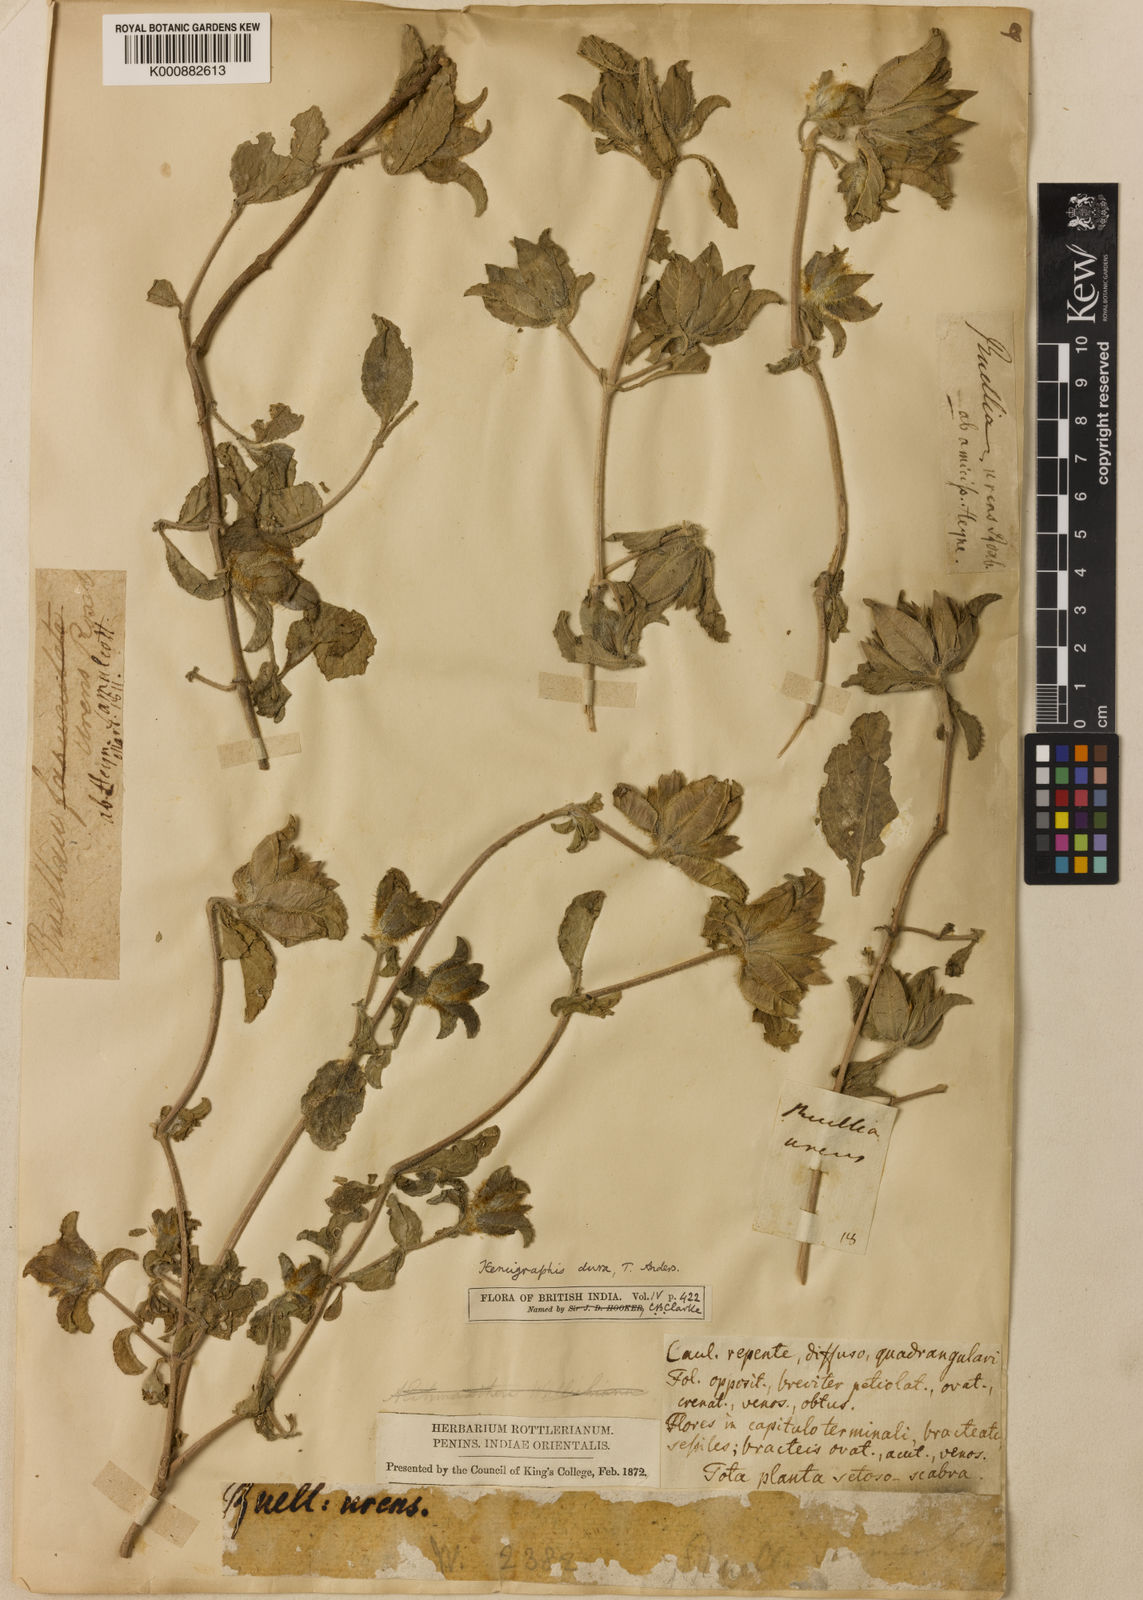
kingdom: Plantae
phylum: Tracheophyta
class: Magnoliopsida
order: Lamiales
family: Acanthaceae
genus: Strobilanthes
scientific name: Strobilanthes urens
